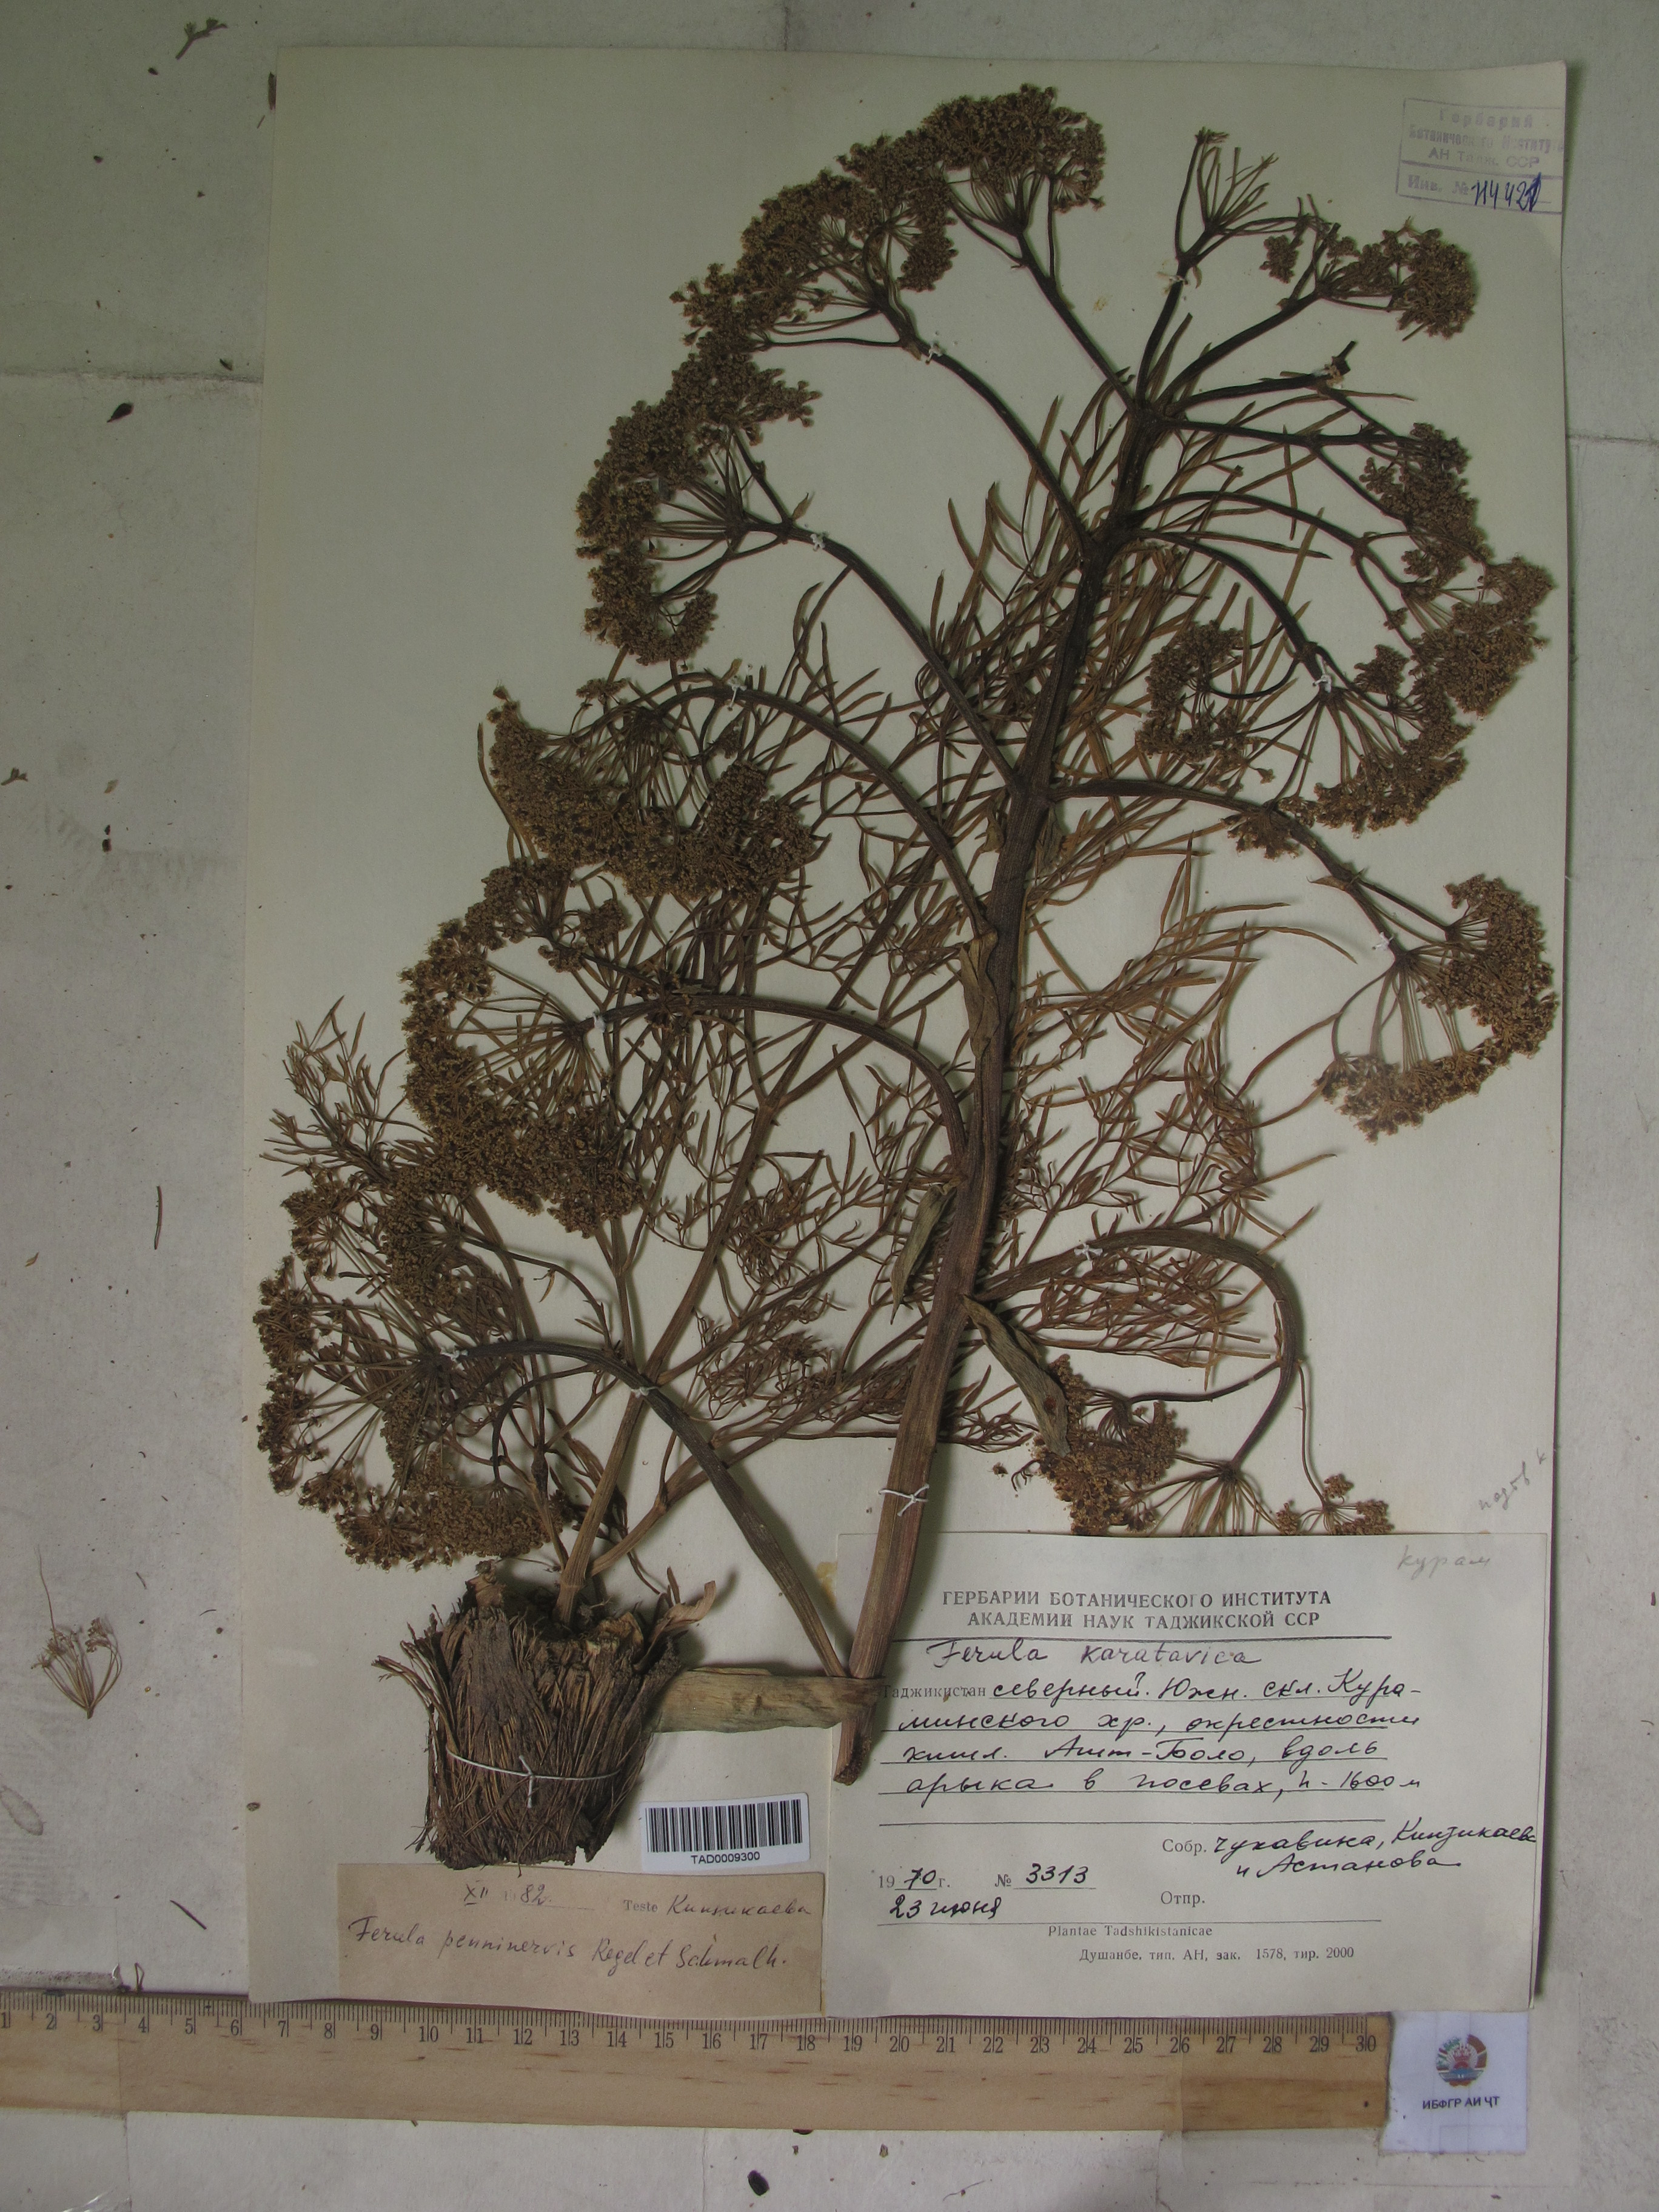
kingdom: Plantae
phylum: Tracheophyta
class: Magnoliopsida
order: Apiales
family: Apiaceae
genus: Ferula
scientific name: Ferula
